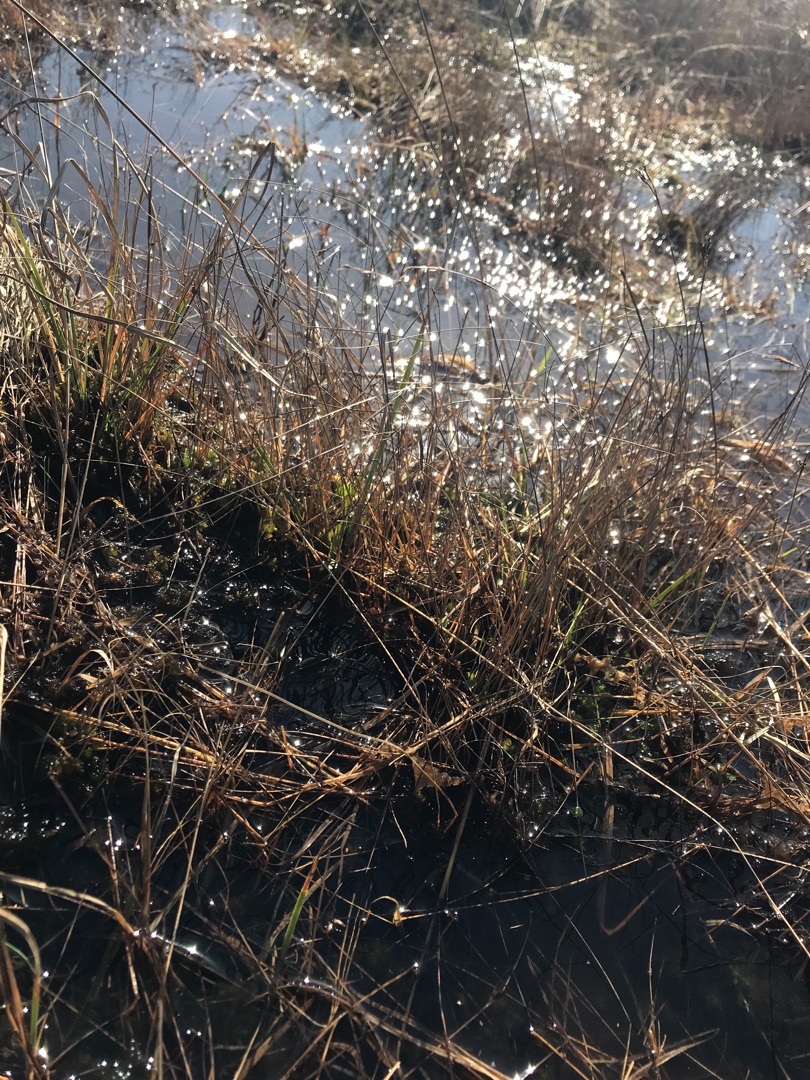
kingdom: Plantae
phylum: Tracheophyta
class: Liliopsida
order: Poales
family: Cyperaceae
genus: Rhynchospora
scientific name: Rhynchospora fusca
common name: Brun næbfrø
